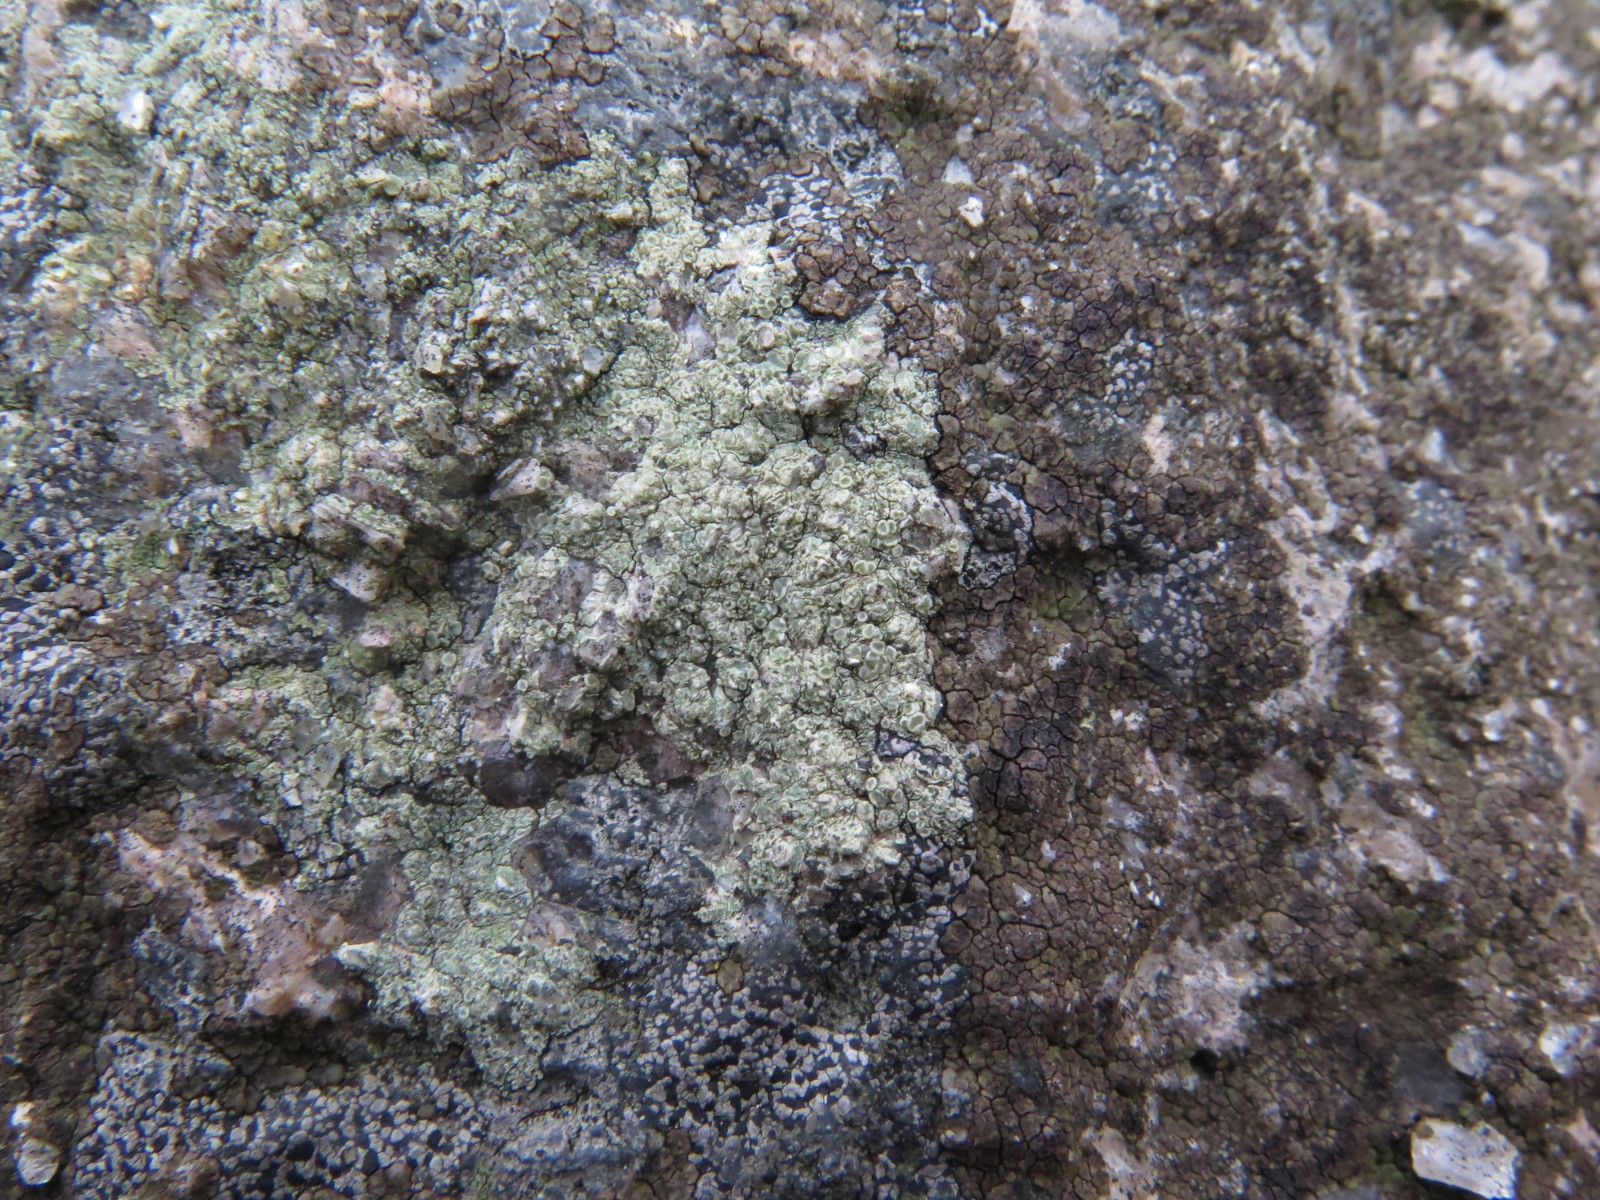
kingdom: Fungi
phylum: Ascomycota
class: Lecanoromycetes
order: Lecanorales
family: Lecanoraceae
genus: Lecanora
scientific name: Lecanora polytropa
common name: bleggrøn kantskivelav
